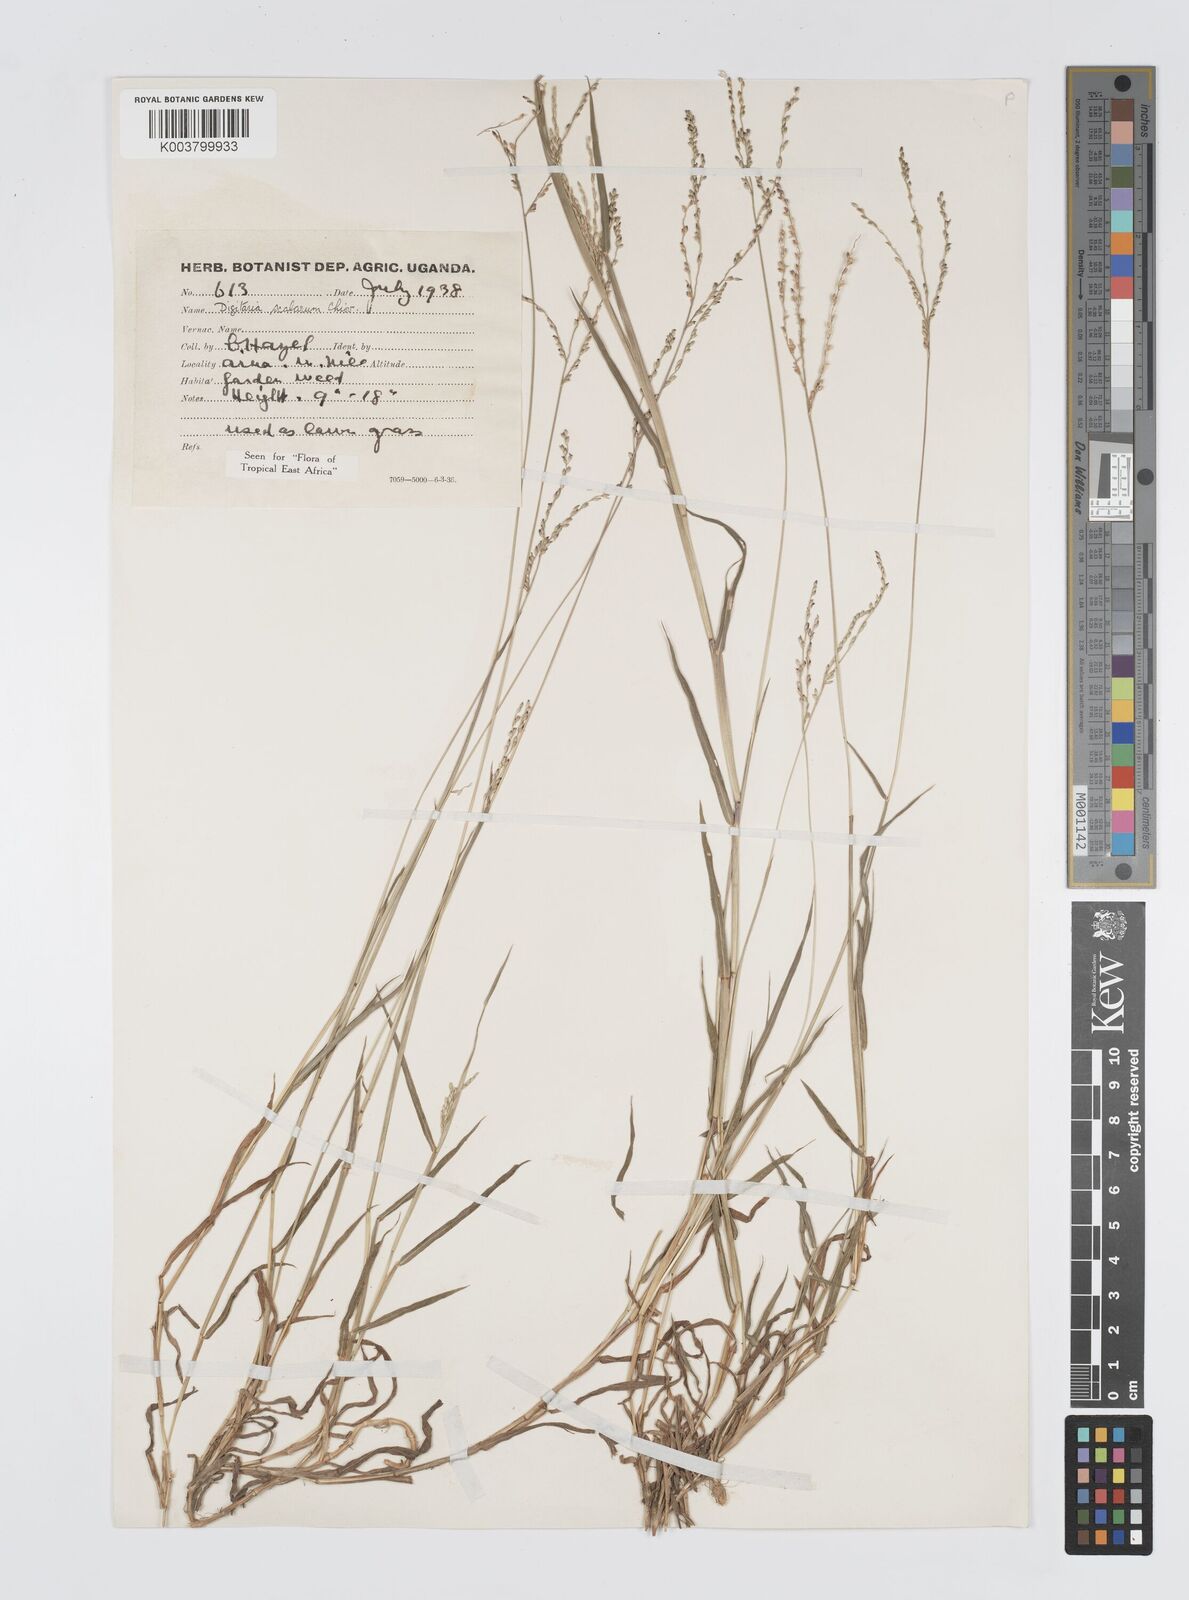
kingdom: Plantae
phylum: Tracheophyta
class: Liliopsida
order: Poales
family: Poaceae
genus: Digitaria
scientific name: Digitaria abyssinica
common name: African couchgrass
